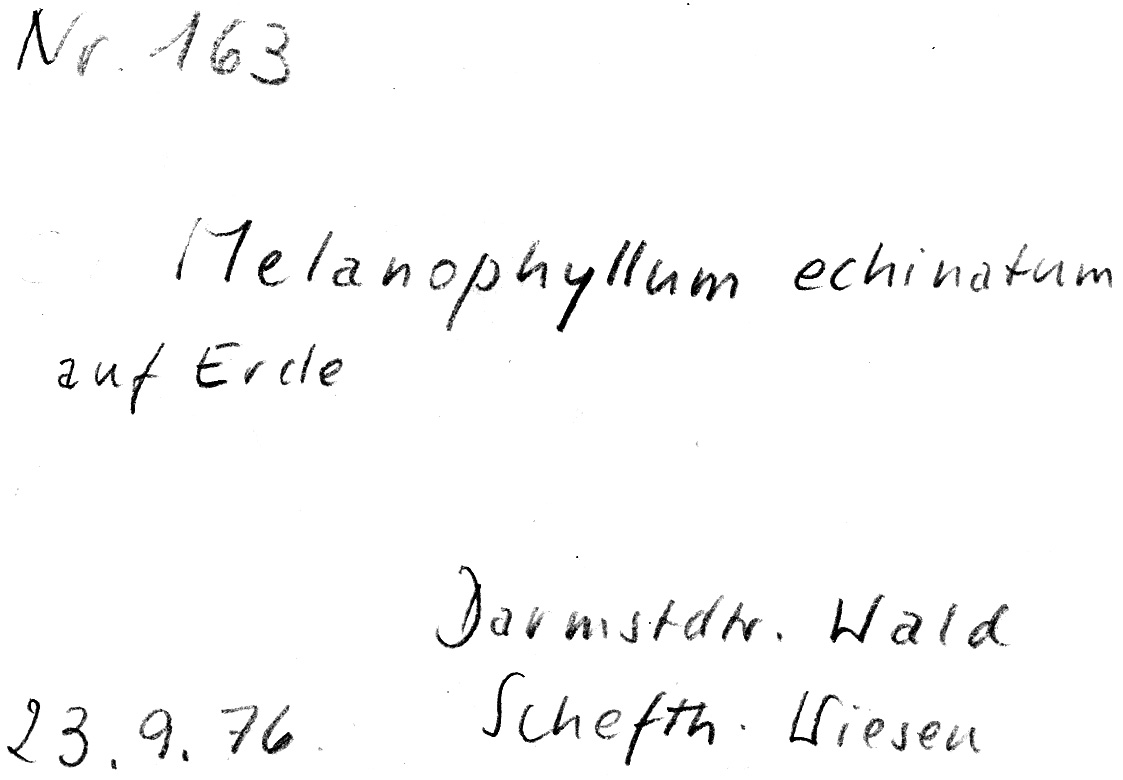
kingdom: Fungi
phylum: Basidiomycota
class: Agaricomycetes
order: Agaricales
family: Agaricaceae
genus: Melanophyllum
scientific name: Melanophyllum haematospermum
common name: Redspored dapperling
